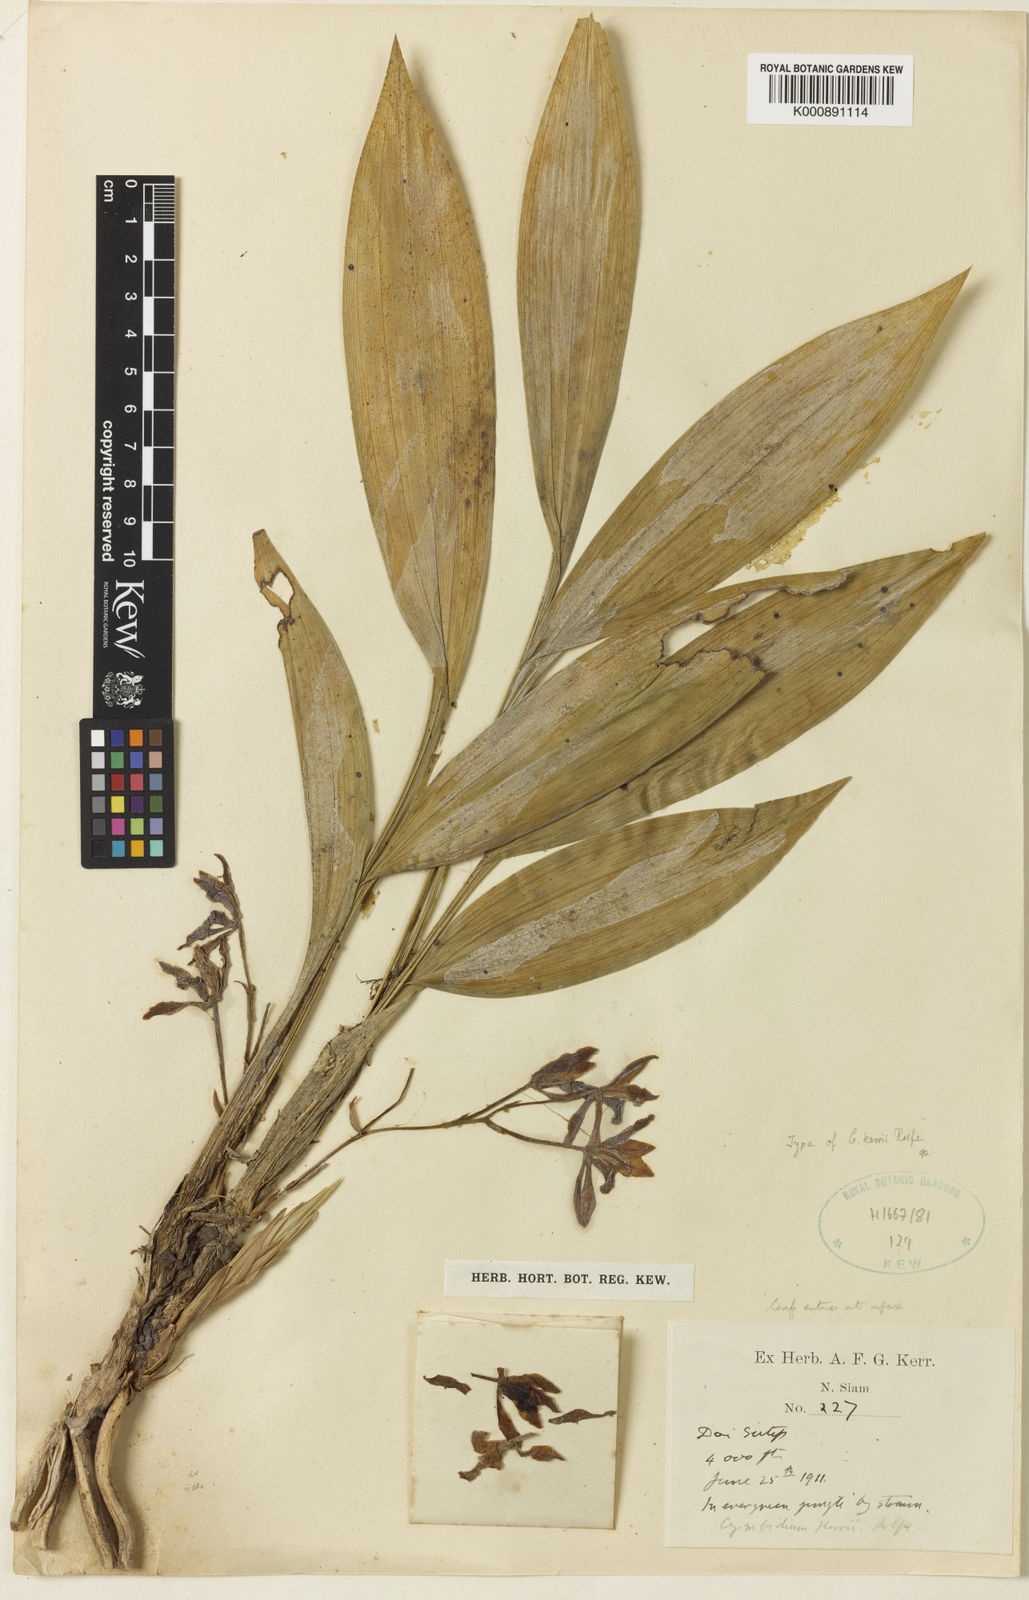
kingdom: Plantae
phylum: Tracheophyta
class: Liliopsida
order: Asparagales
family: Orchidaceae
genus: Cymbidium
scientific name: Cymbidium lancifolium
